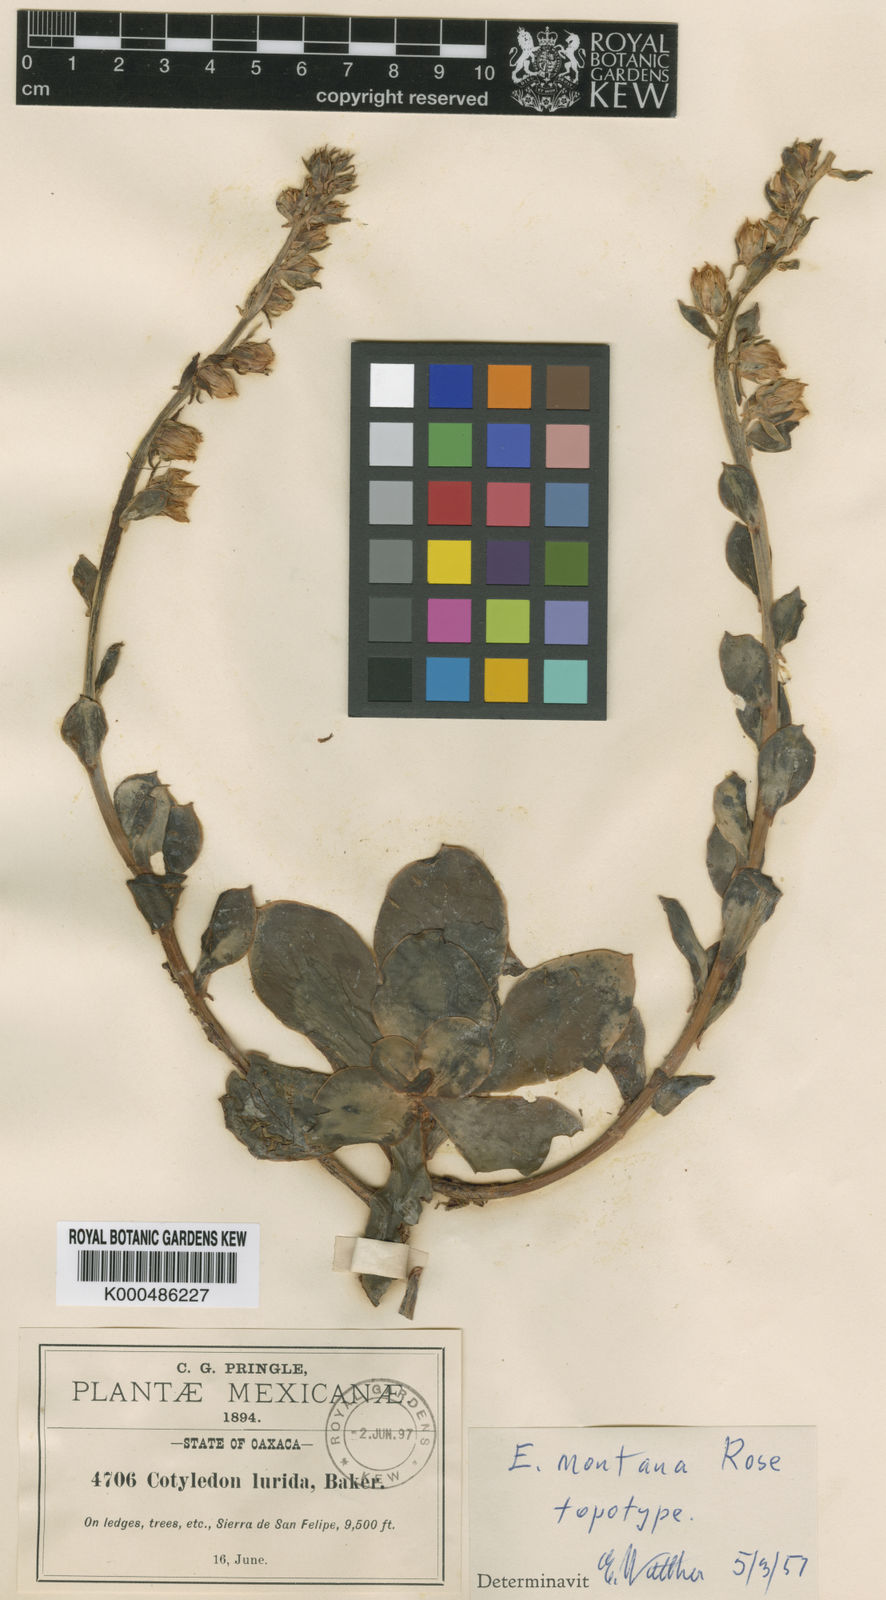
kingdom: Plantae
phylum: Tracheophyta
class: Magnoliopsida
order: Saxifragales
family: Crassulaceae
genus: Echeveria
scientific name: Echeveria montana
